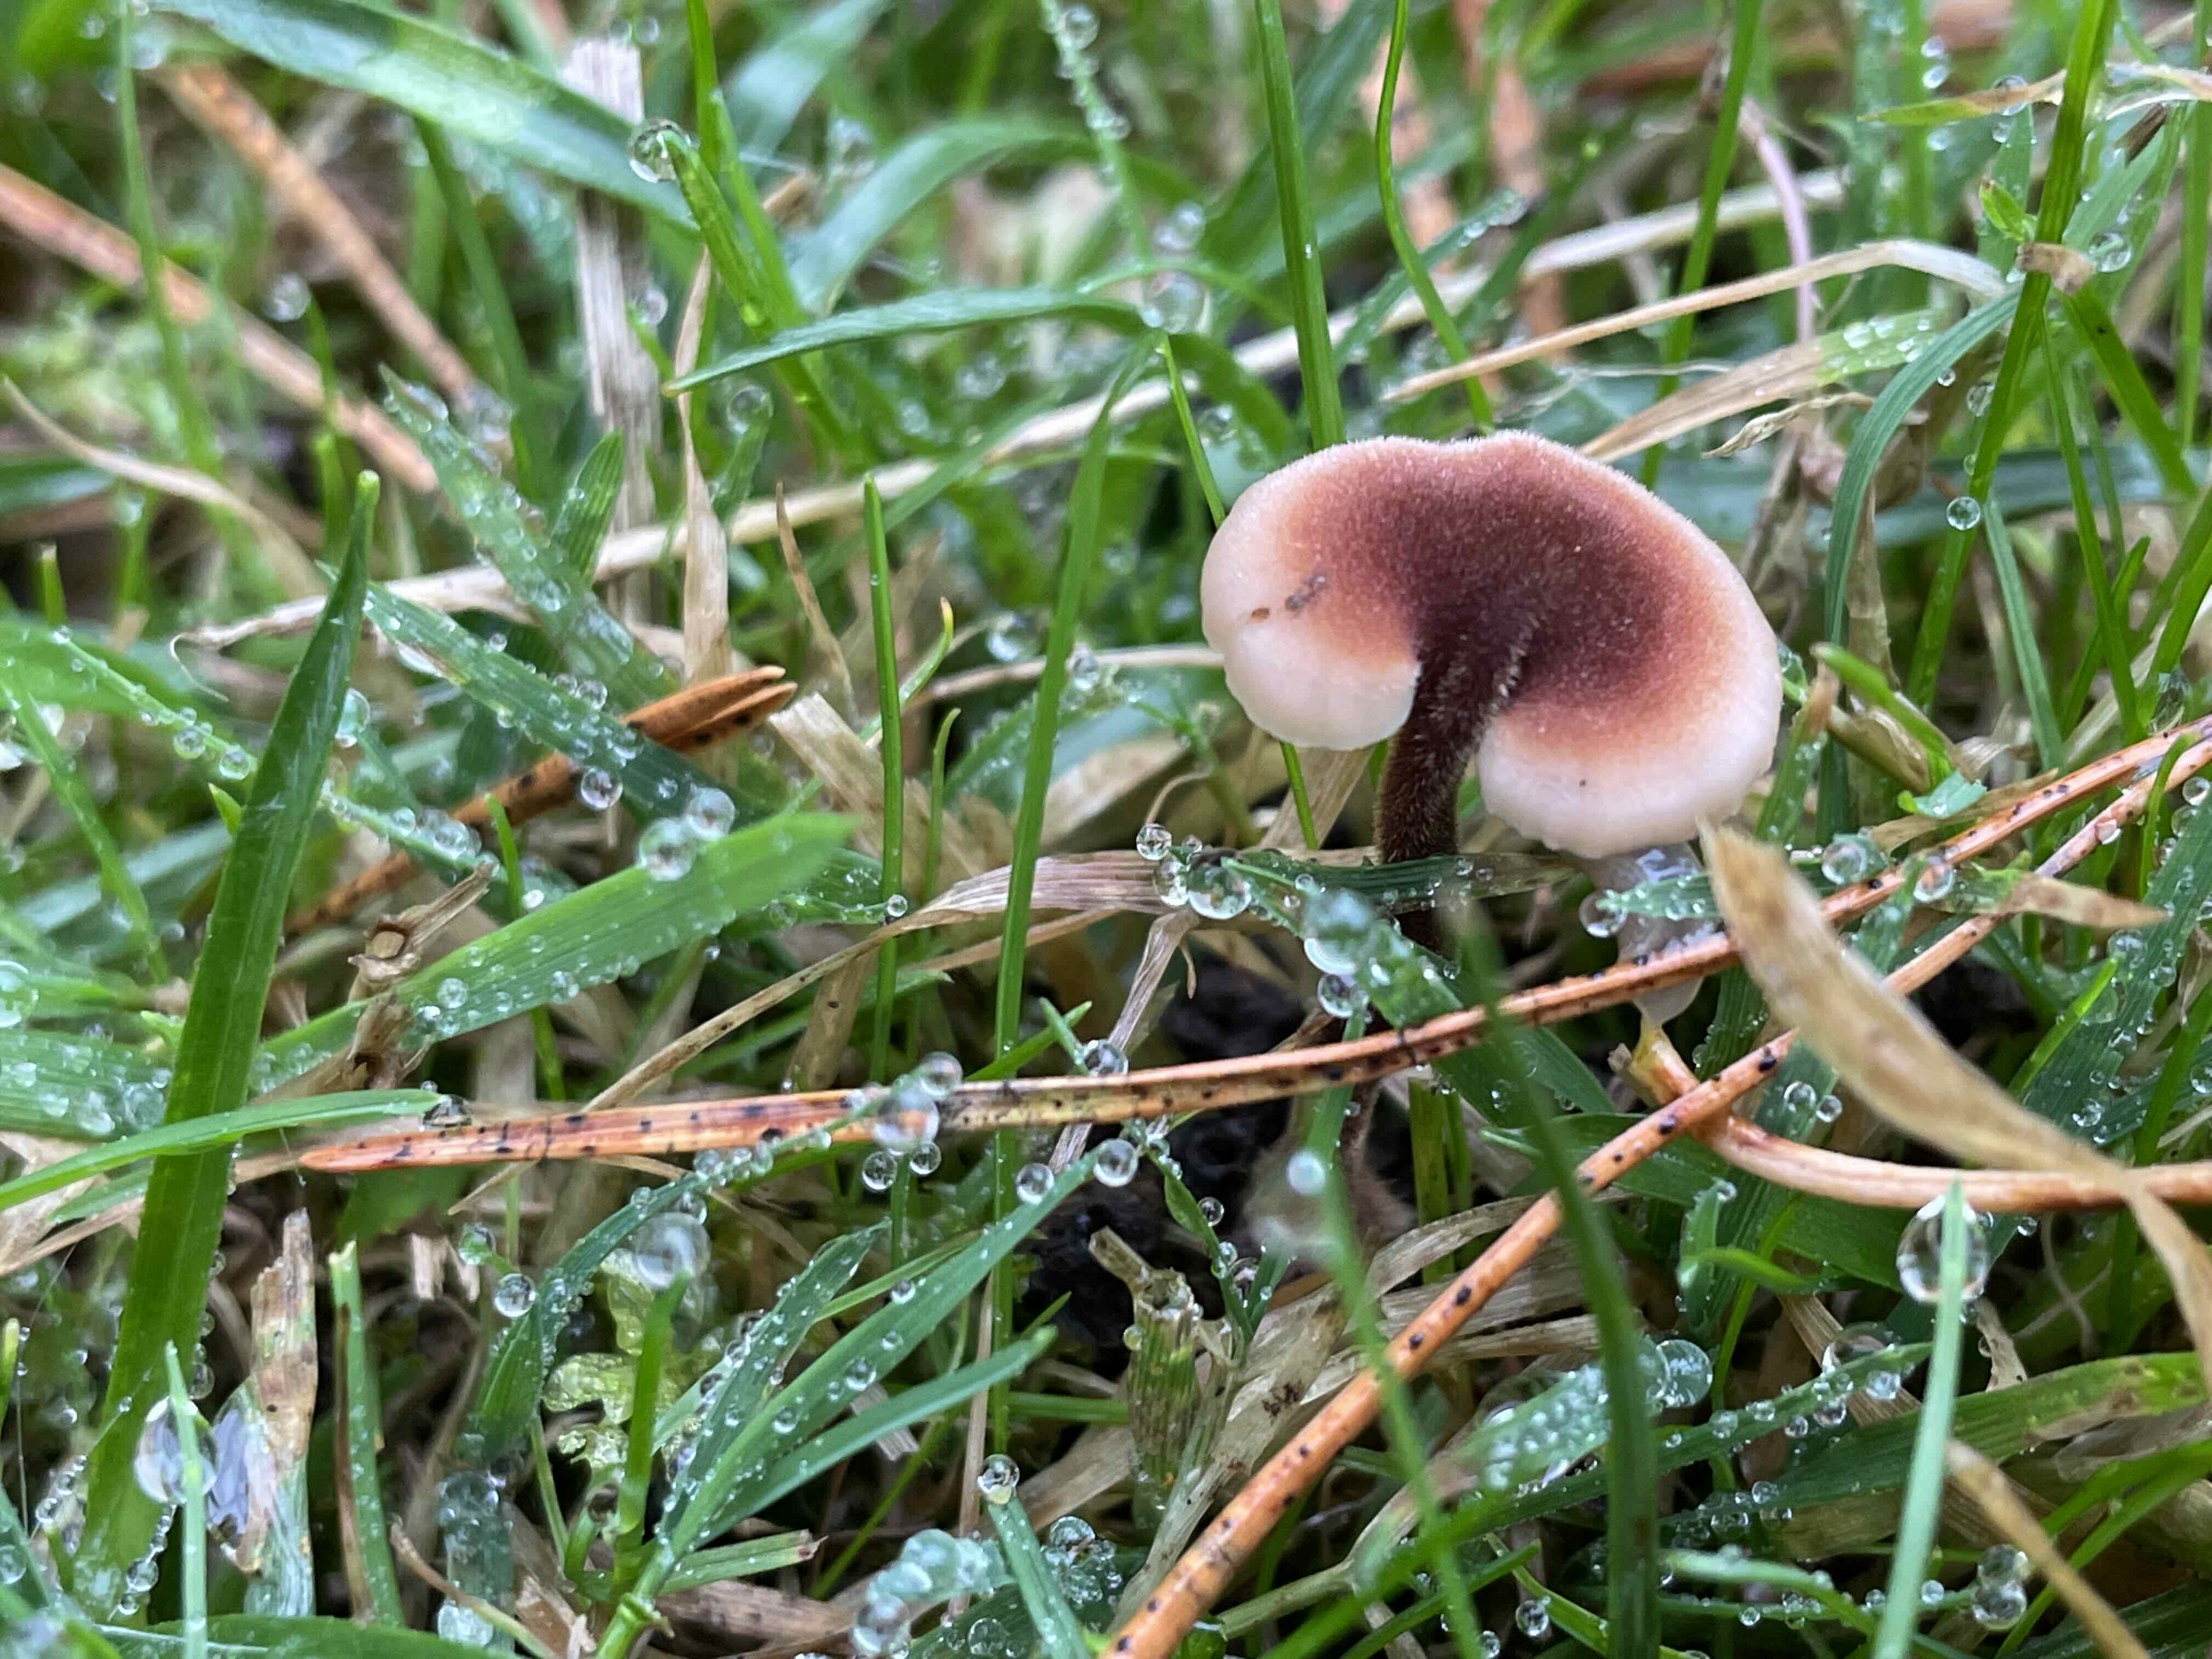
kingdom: Fungi
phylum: Basidiomycota
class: Agaricomycetes
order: Russulales
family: Auriscalpiaceae
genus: Auriscalpium
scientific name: Auriscalpium vulgare
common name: koglepigsvamp
